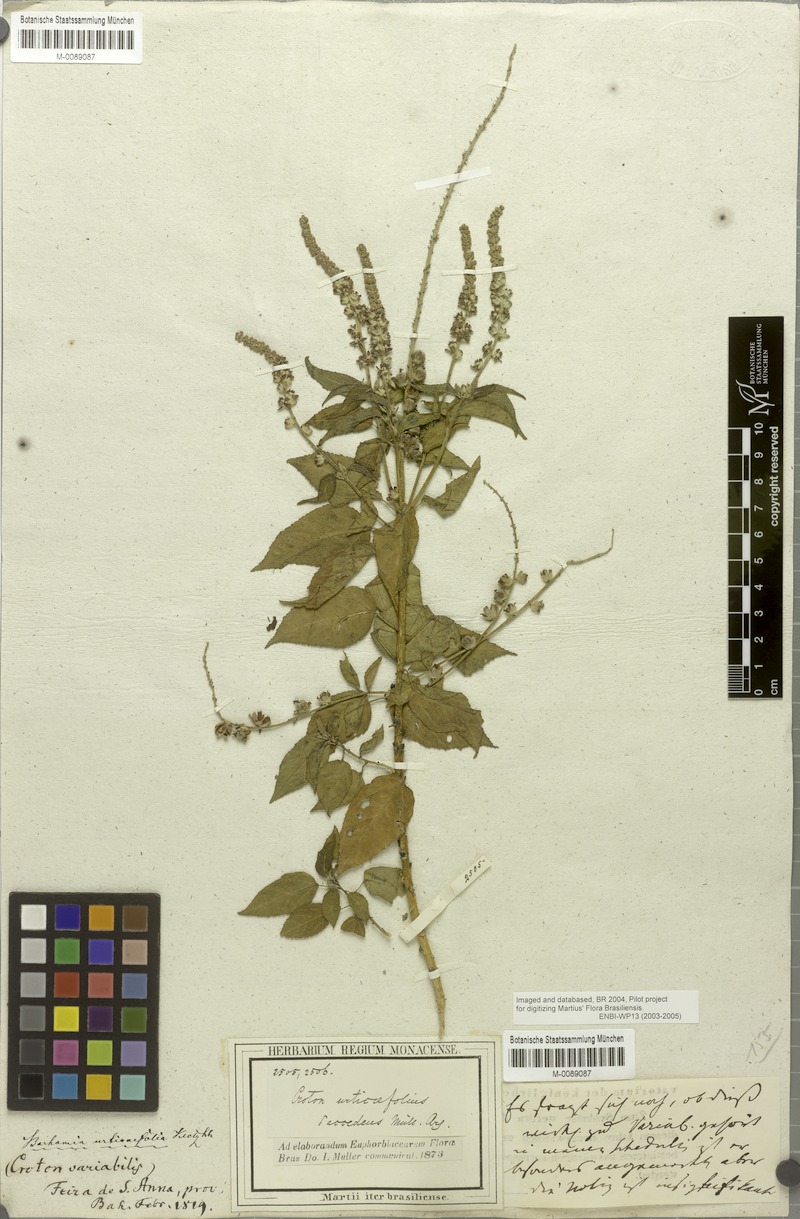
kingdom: Plantae
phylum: Tracheophyta
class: Magnoliopsida
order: Malpighiales
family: Euphorbiaceae
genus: Croton
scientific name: Croton urticifolius
